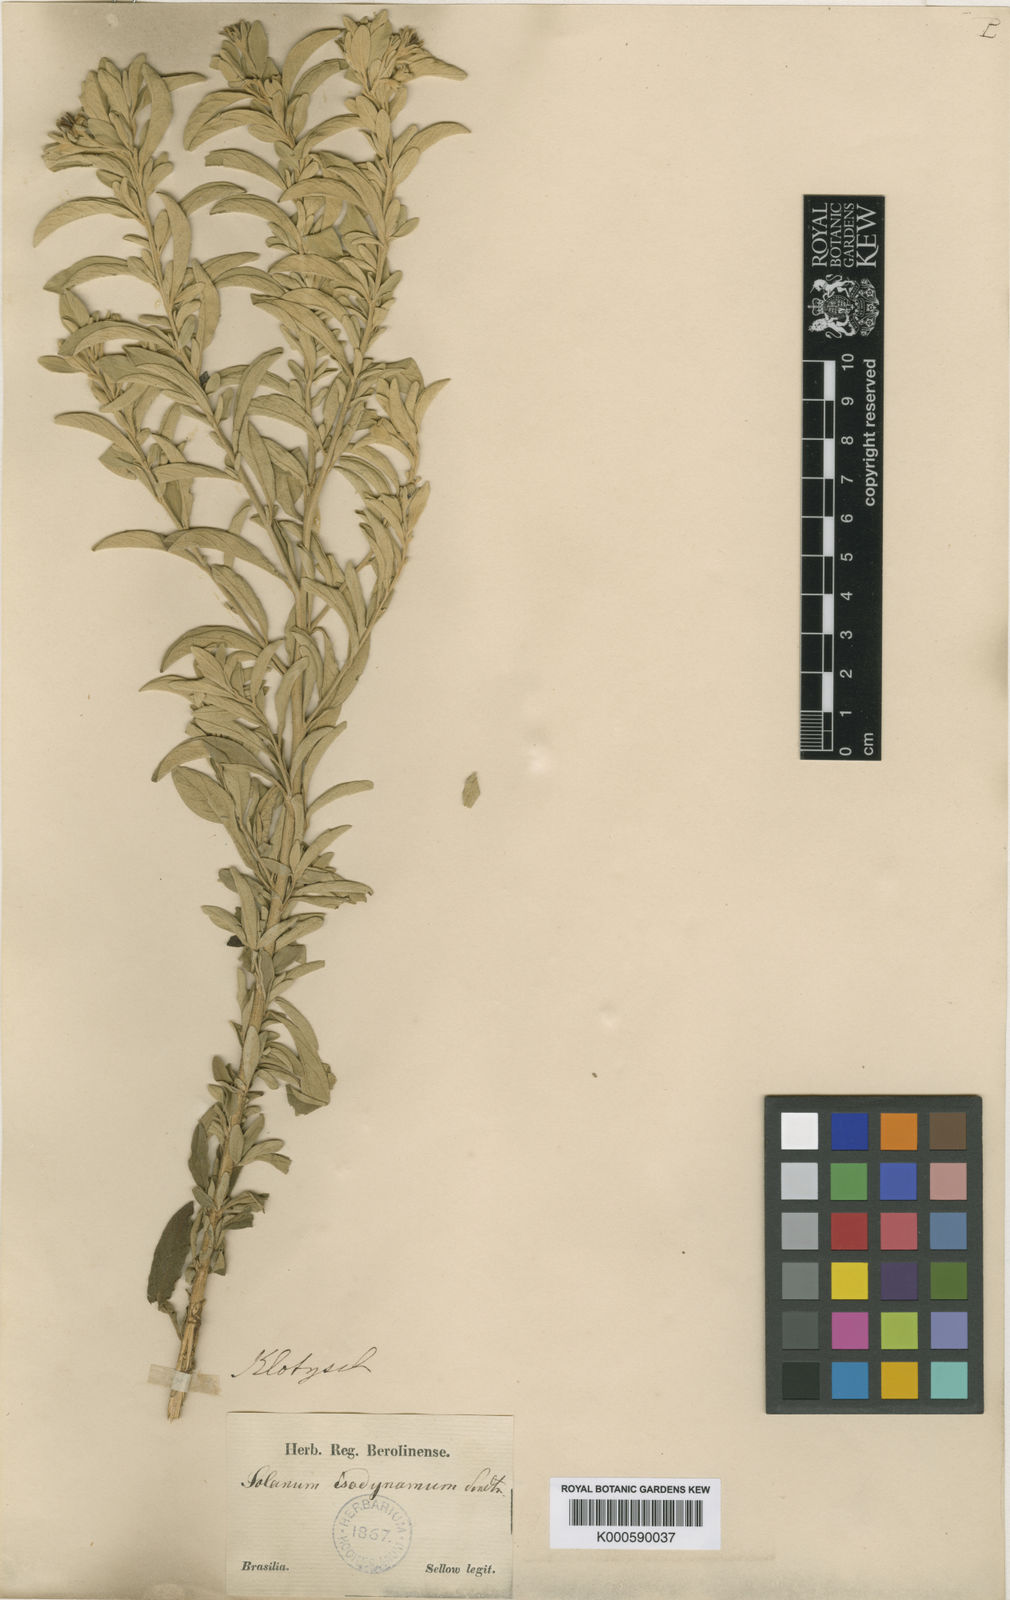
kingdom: Plantae
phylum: Tracheophyta
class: Magnoliopsida
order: Solanales
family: Solanaceae
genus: Solanum
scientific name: Solanum isodynamum
